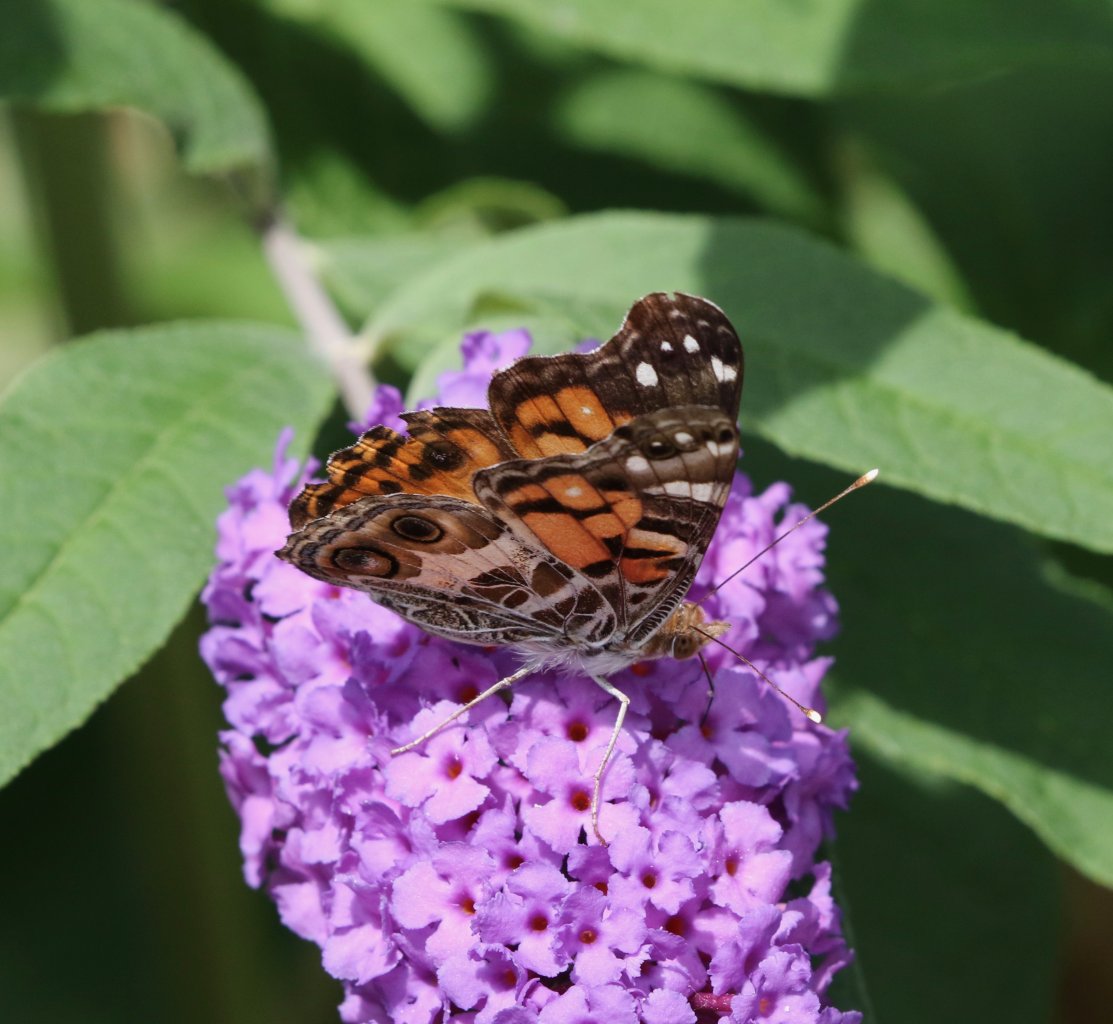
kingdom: Animalia
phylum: Arthropoda
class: Insecta
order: Lepidoptera
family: Nymphalidae
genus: Vanessa
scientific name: Vanessa virginiensis
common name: American Lady
